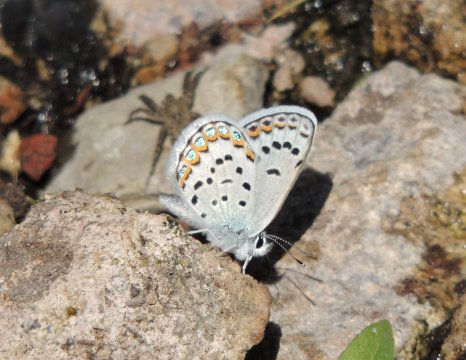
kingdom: Animalia
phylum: Arthropoda
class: Insecta
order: Lepidoptera
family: Lycaenidae
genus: Lycaeides
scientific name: Lycaeides melissa
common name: Melissa Blue
